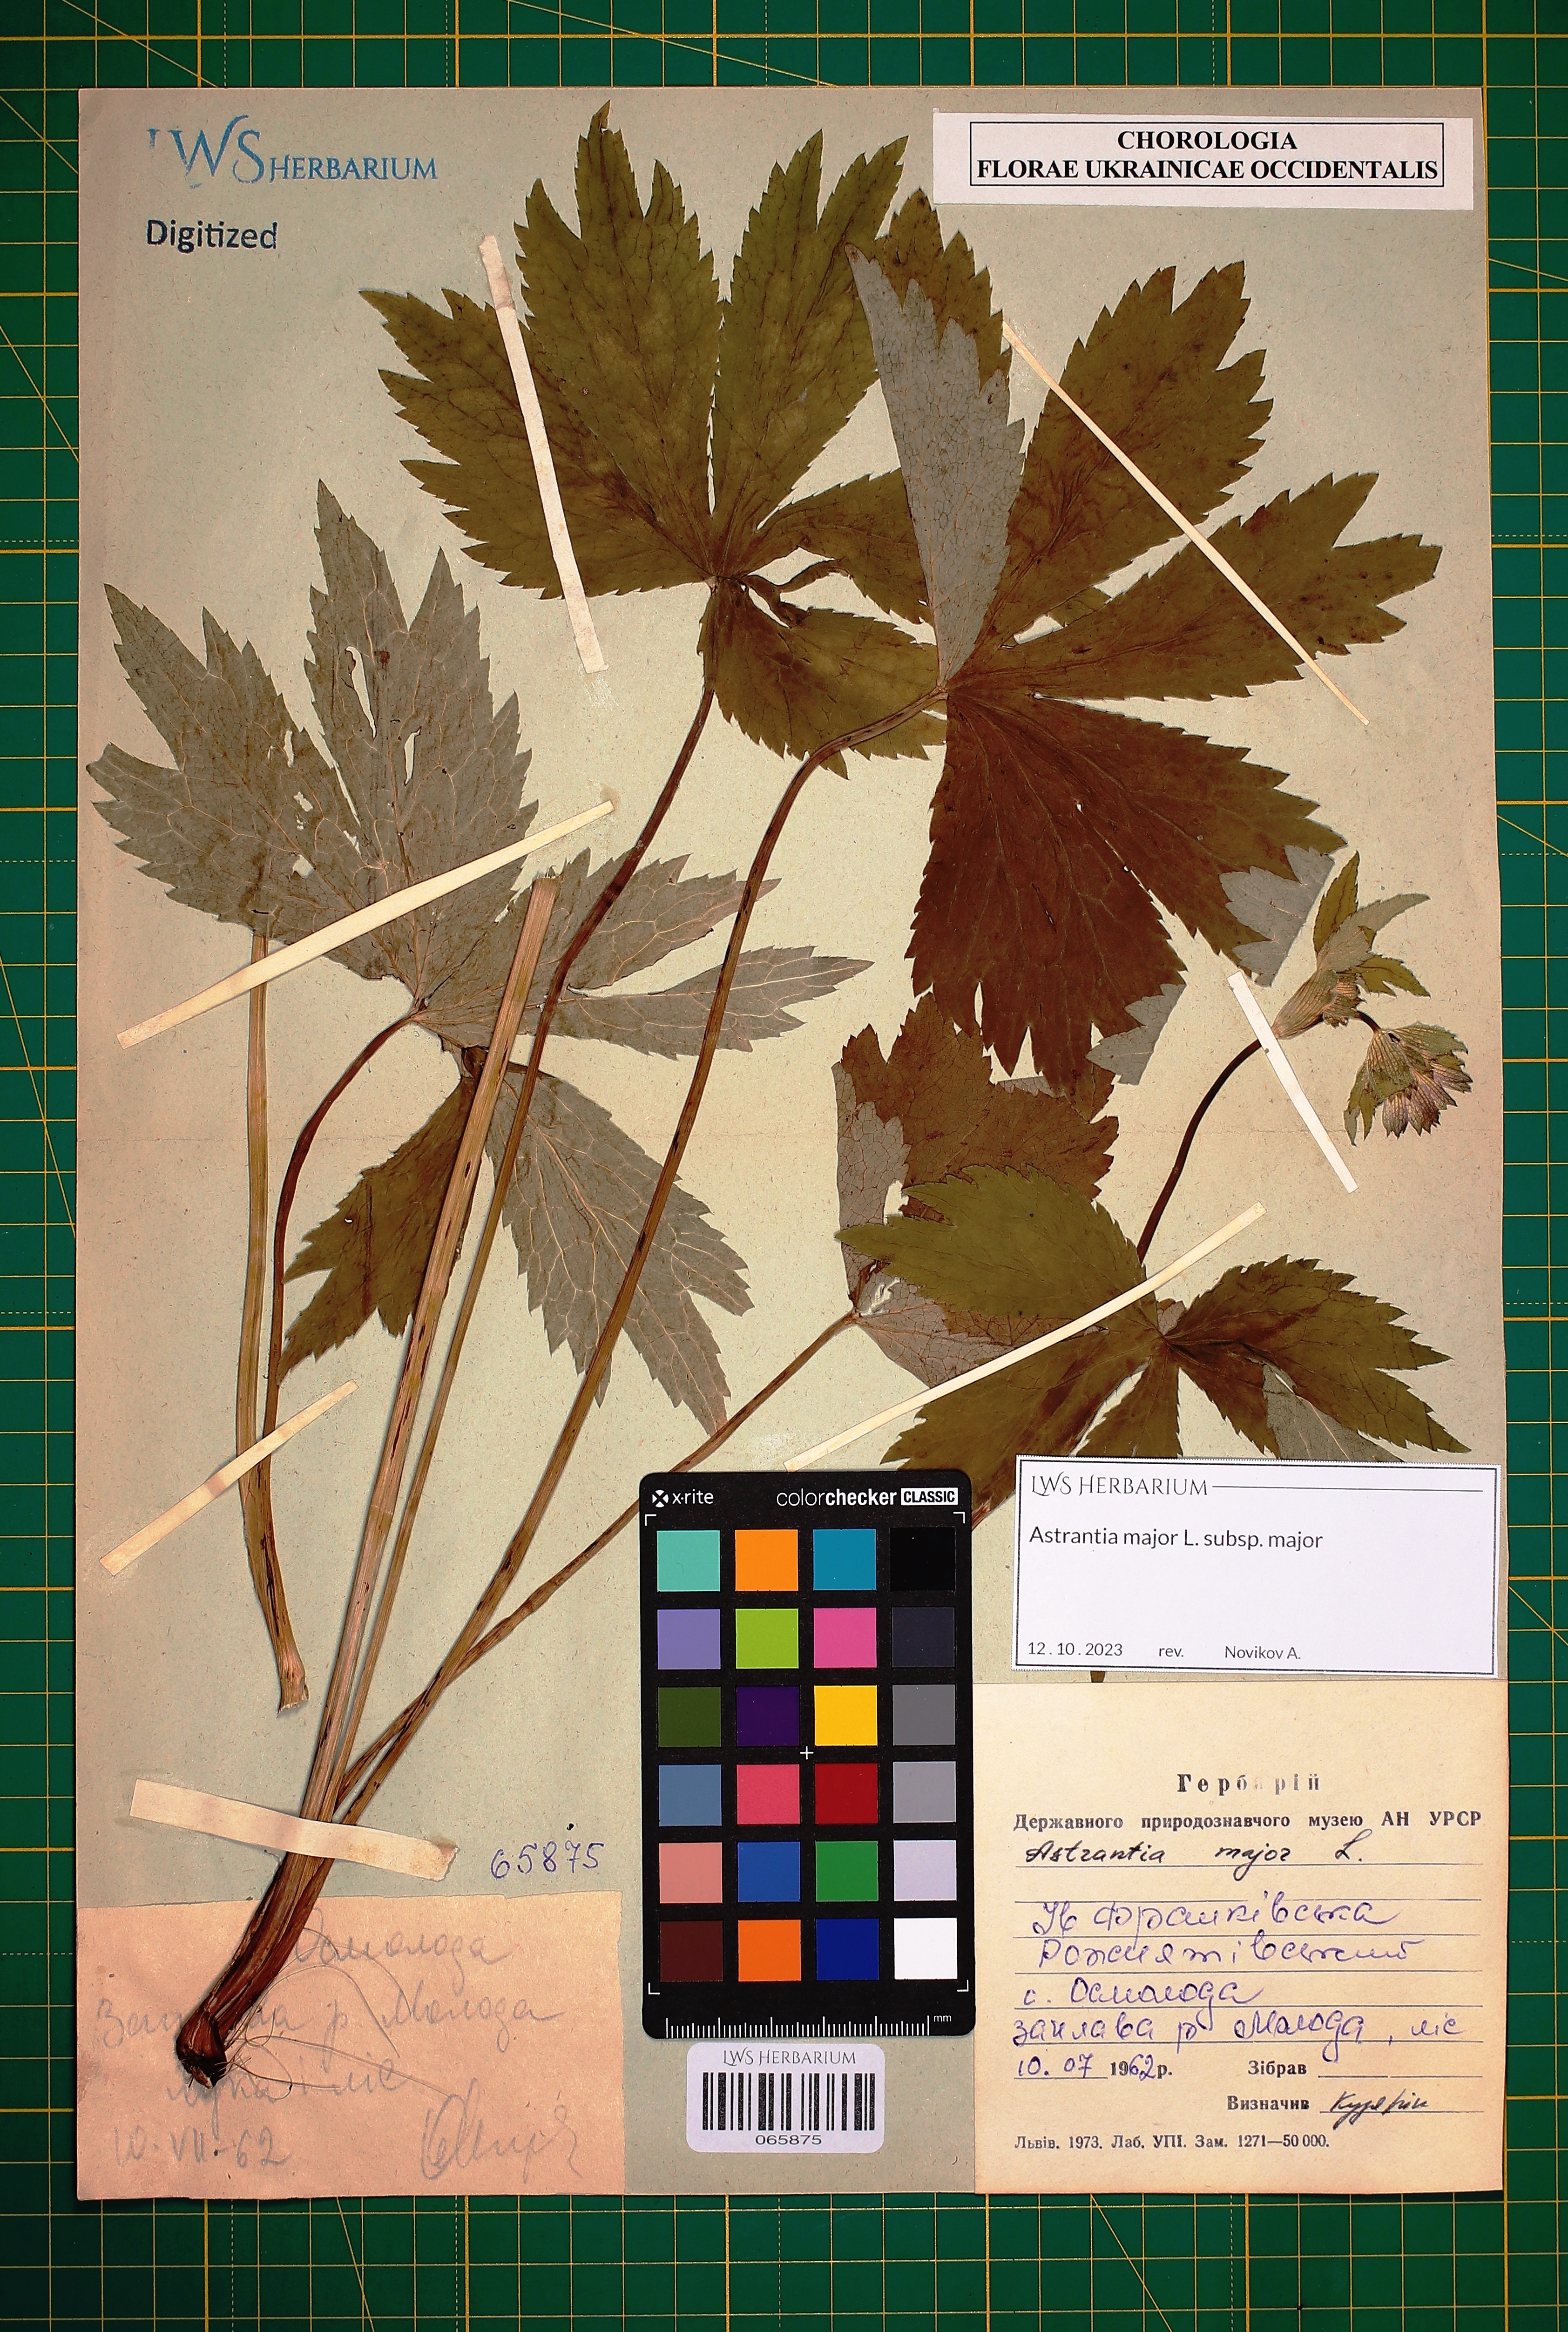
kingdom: Plantae
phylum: Tracheophyta
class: Magnoliopsida
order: Apiales
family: Apiaceae
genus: Astrantia
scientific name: Astrantia major
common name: Greater masterwort
